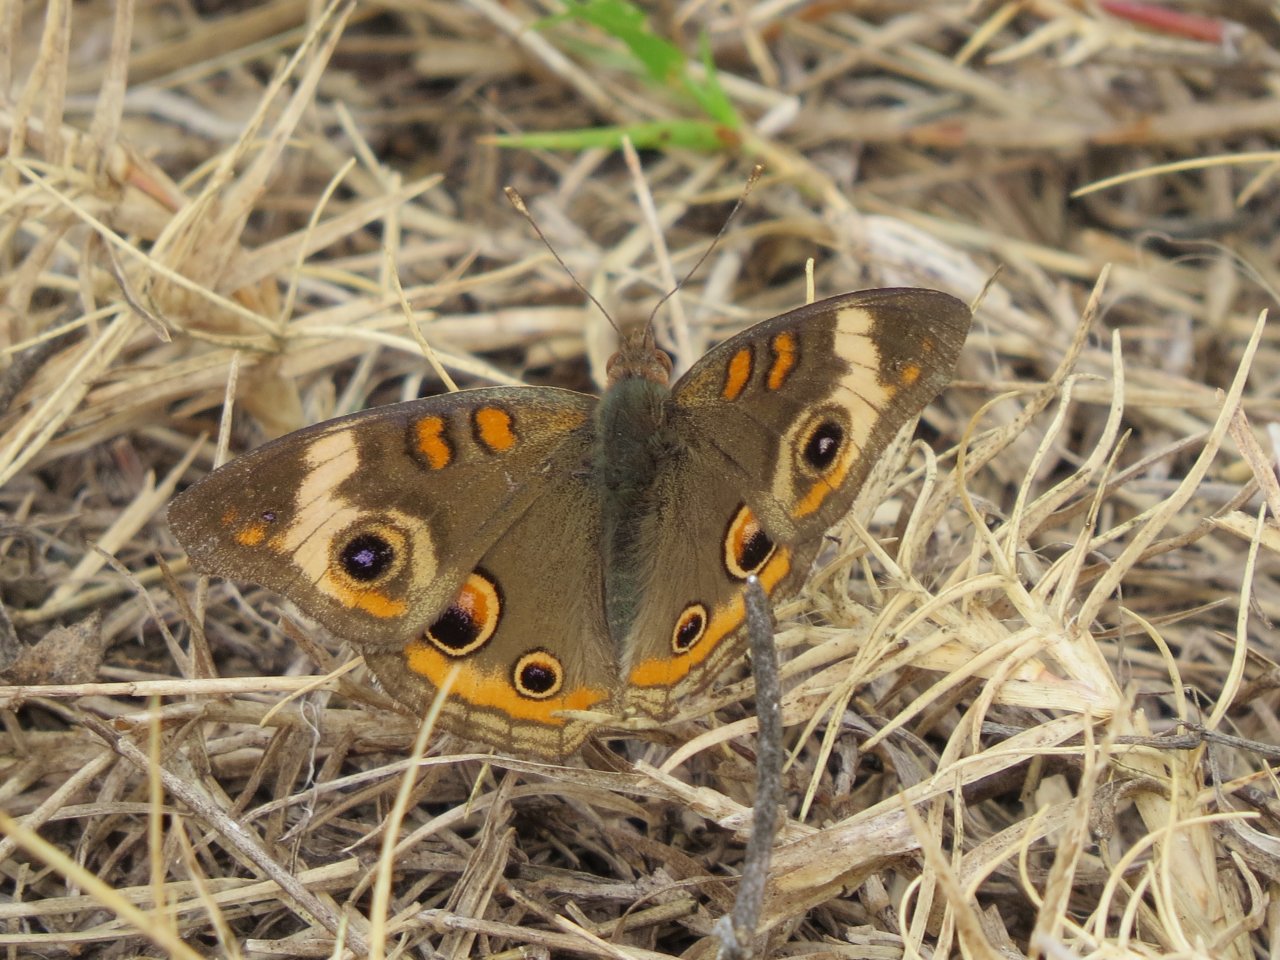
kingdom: Animalia
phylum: Arthropoda
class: Insecta
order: Lepidoptera
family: Nymphalidae
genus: Junonia
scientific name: Junonia coenia
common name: Common Buckeye
